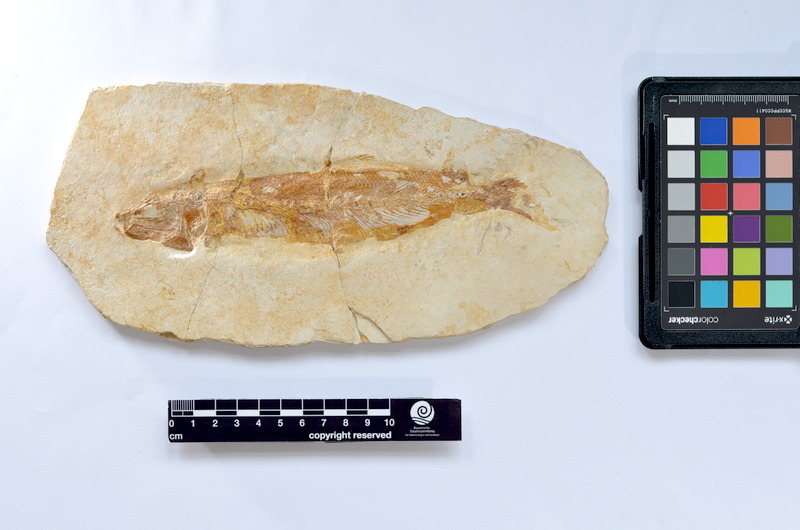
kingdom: Animalia
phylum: Chordata
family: Ascalaboidae
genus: Tharsis
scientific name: Tharsis dubius
